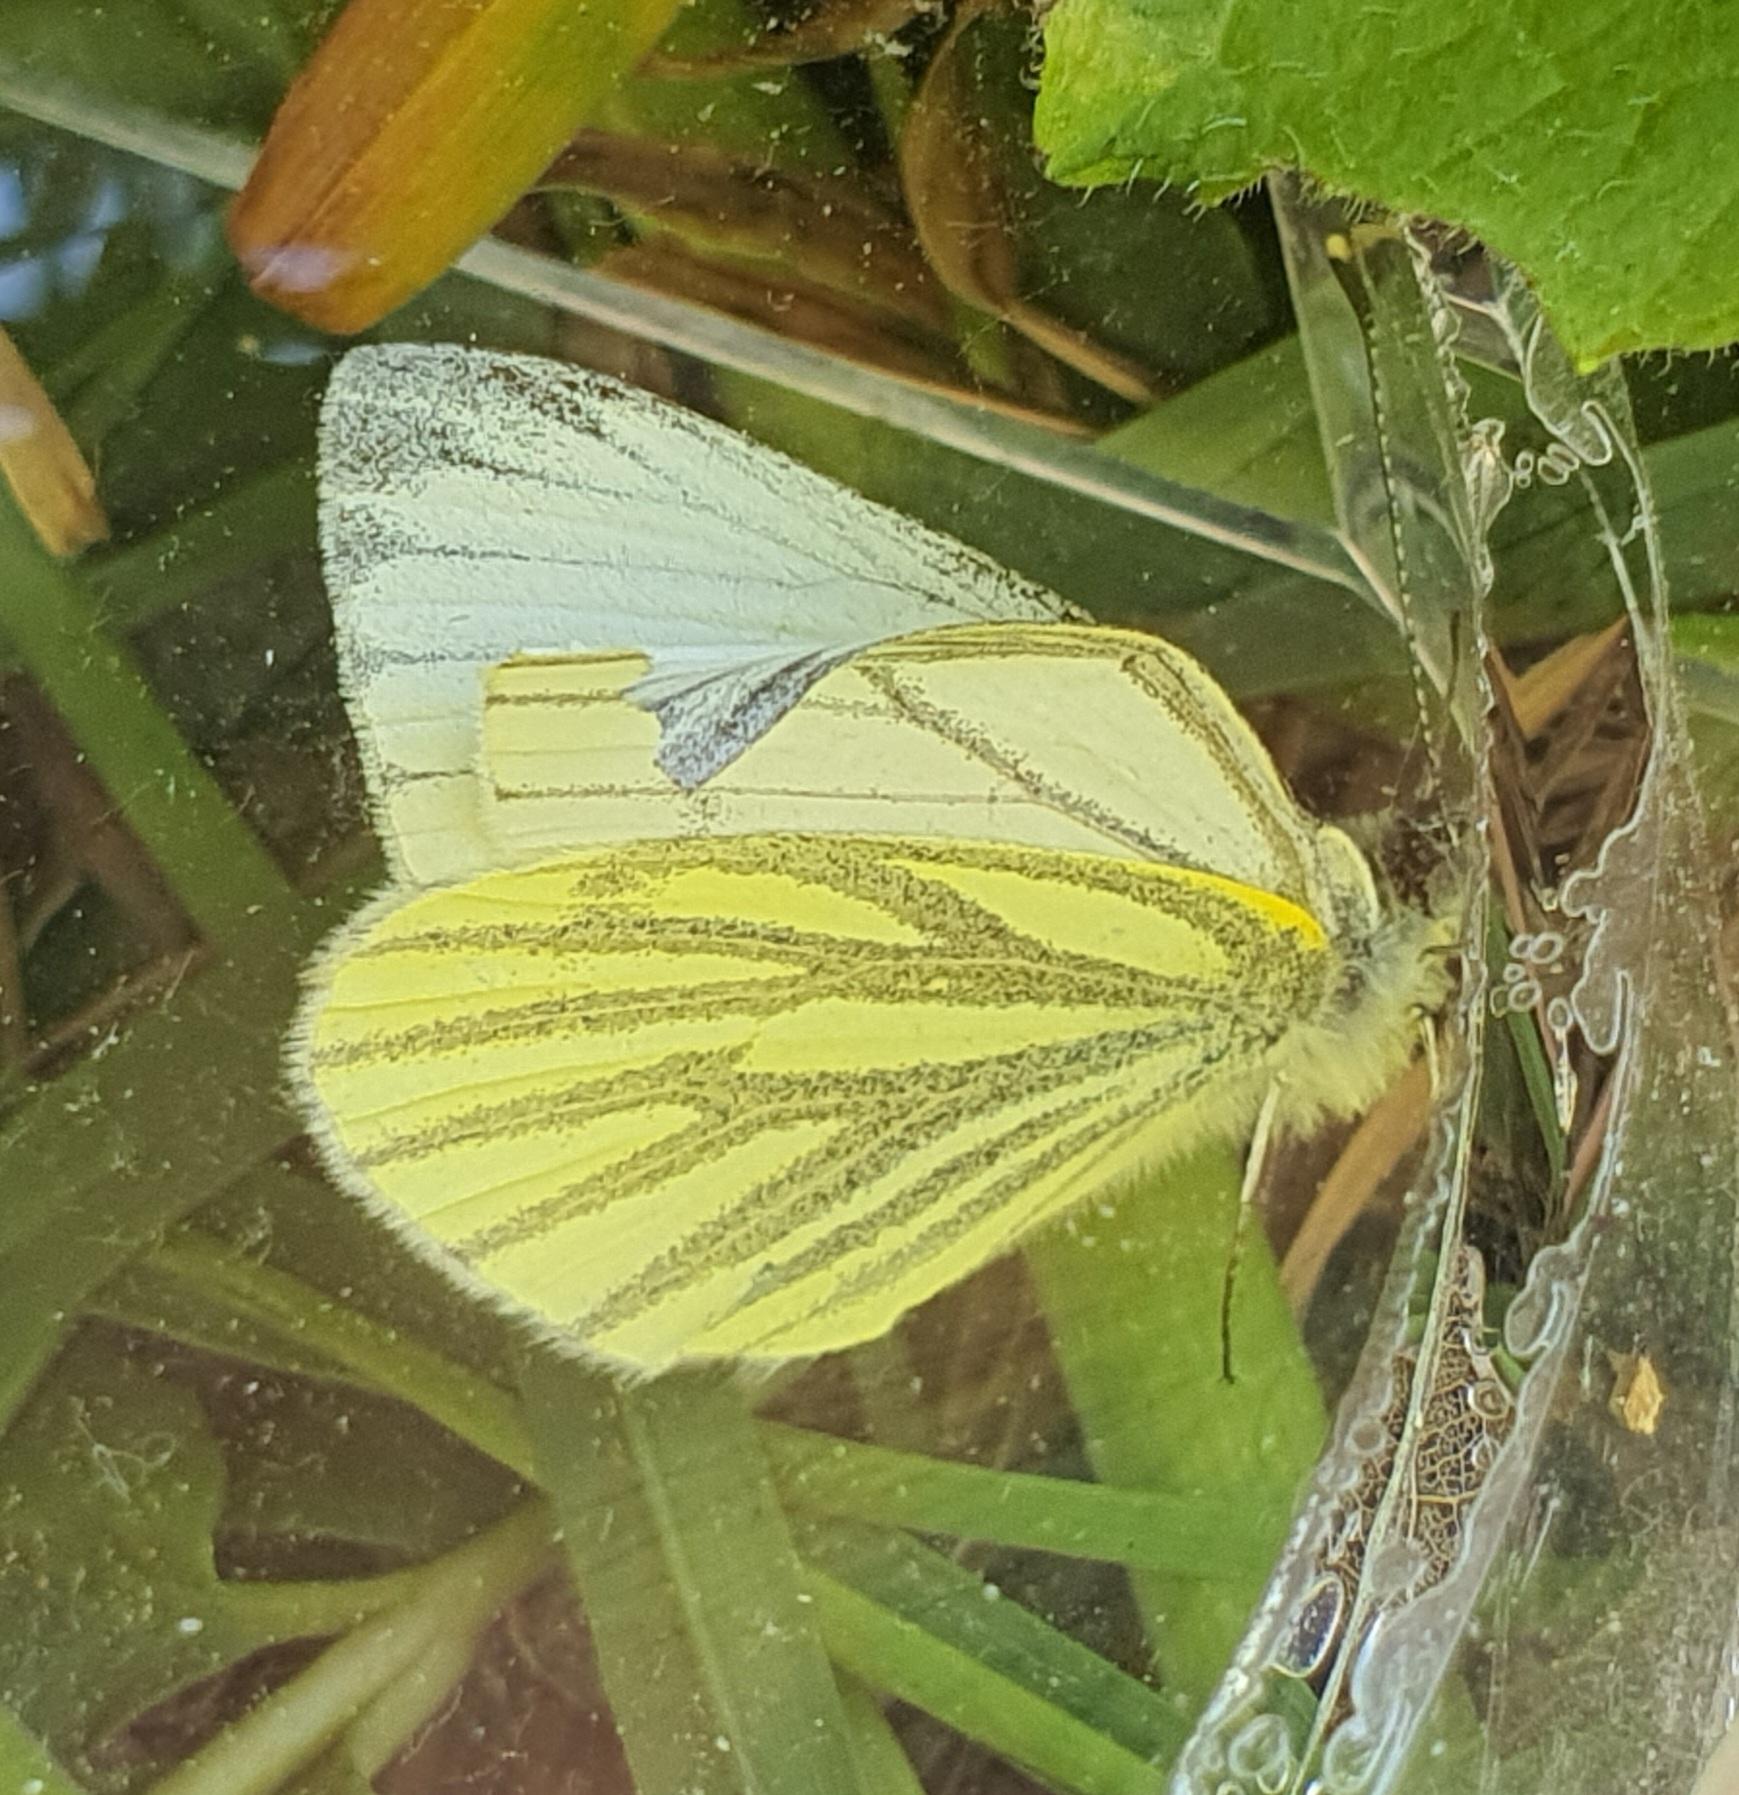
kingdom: Animalia
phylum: Arthropoda
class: Insecta
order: Lepidoptera
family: Pieridae
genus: Pieris
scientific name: Pieris napi
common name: Grønåret kålsommerfugl
